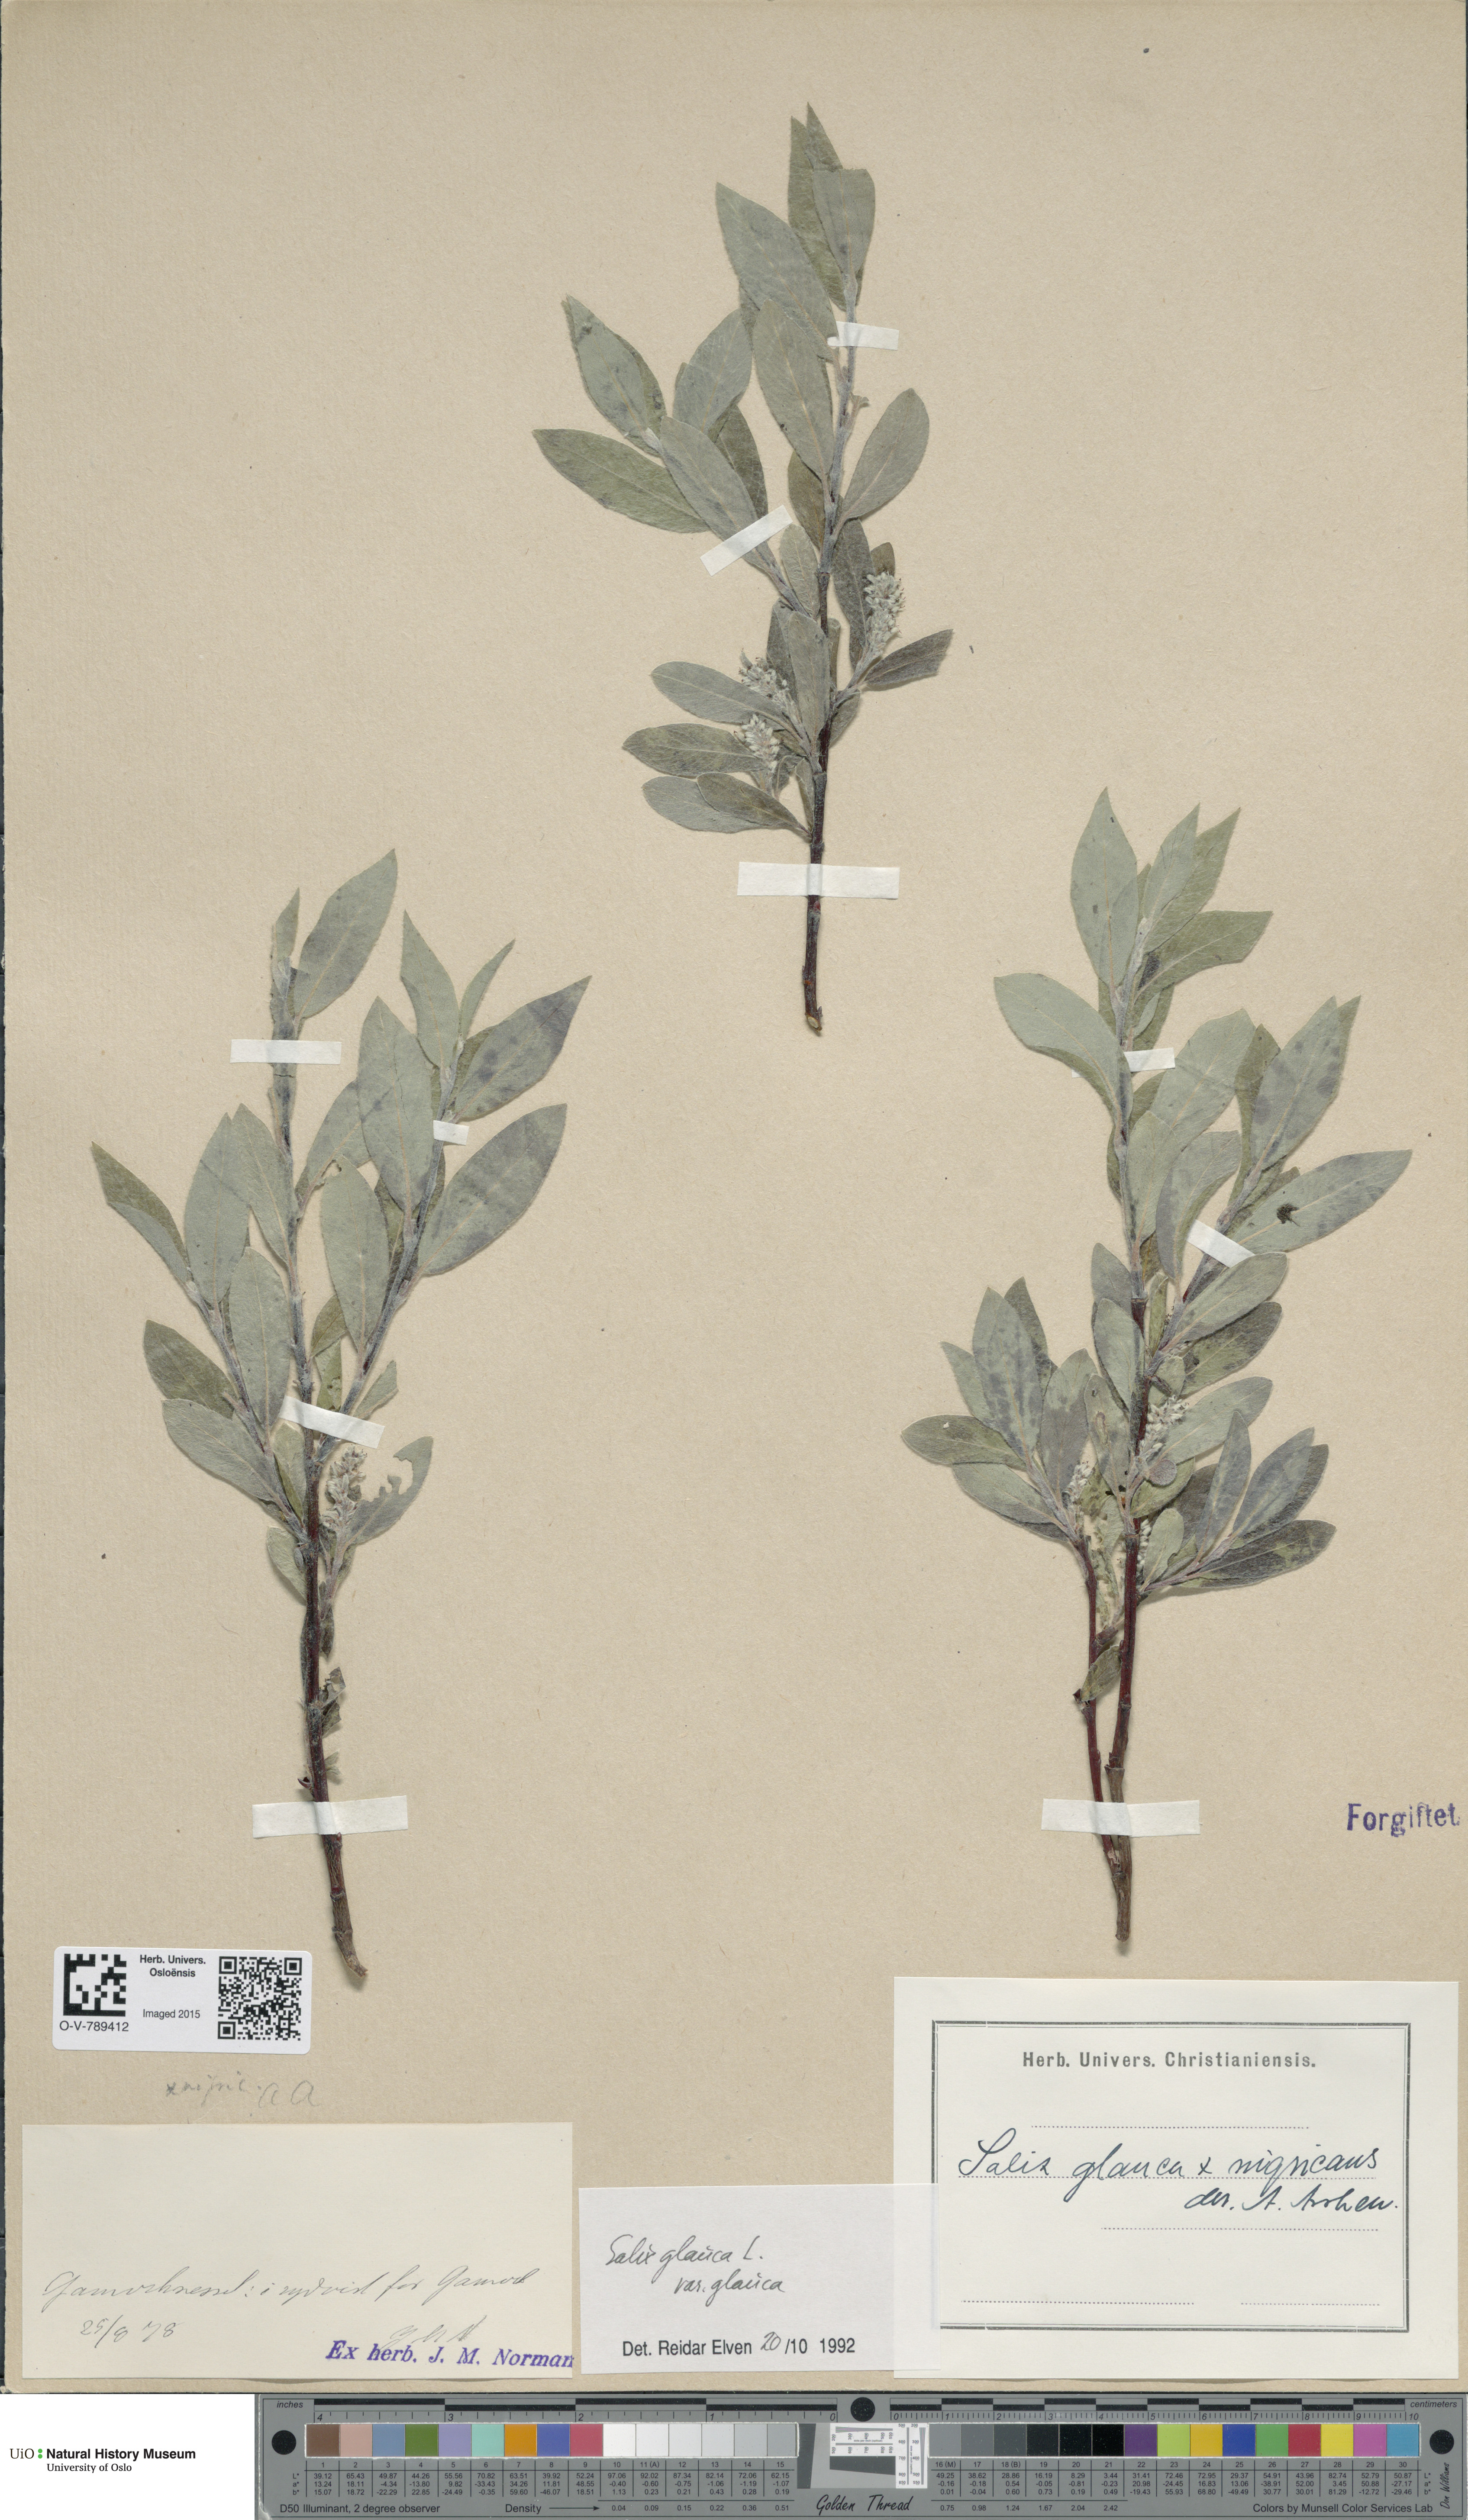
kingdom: Plantae
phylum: Tracheophyta
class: Magnoliopsida
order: Malpighiales
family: Salicaceae
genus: Salix
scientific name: Salix glauca
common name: Glaucous willow
